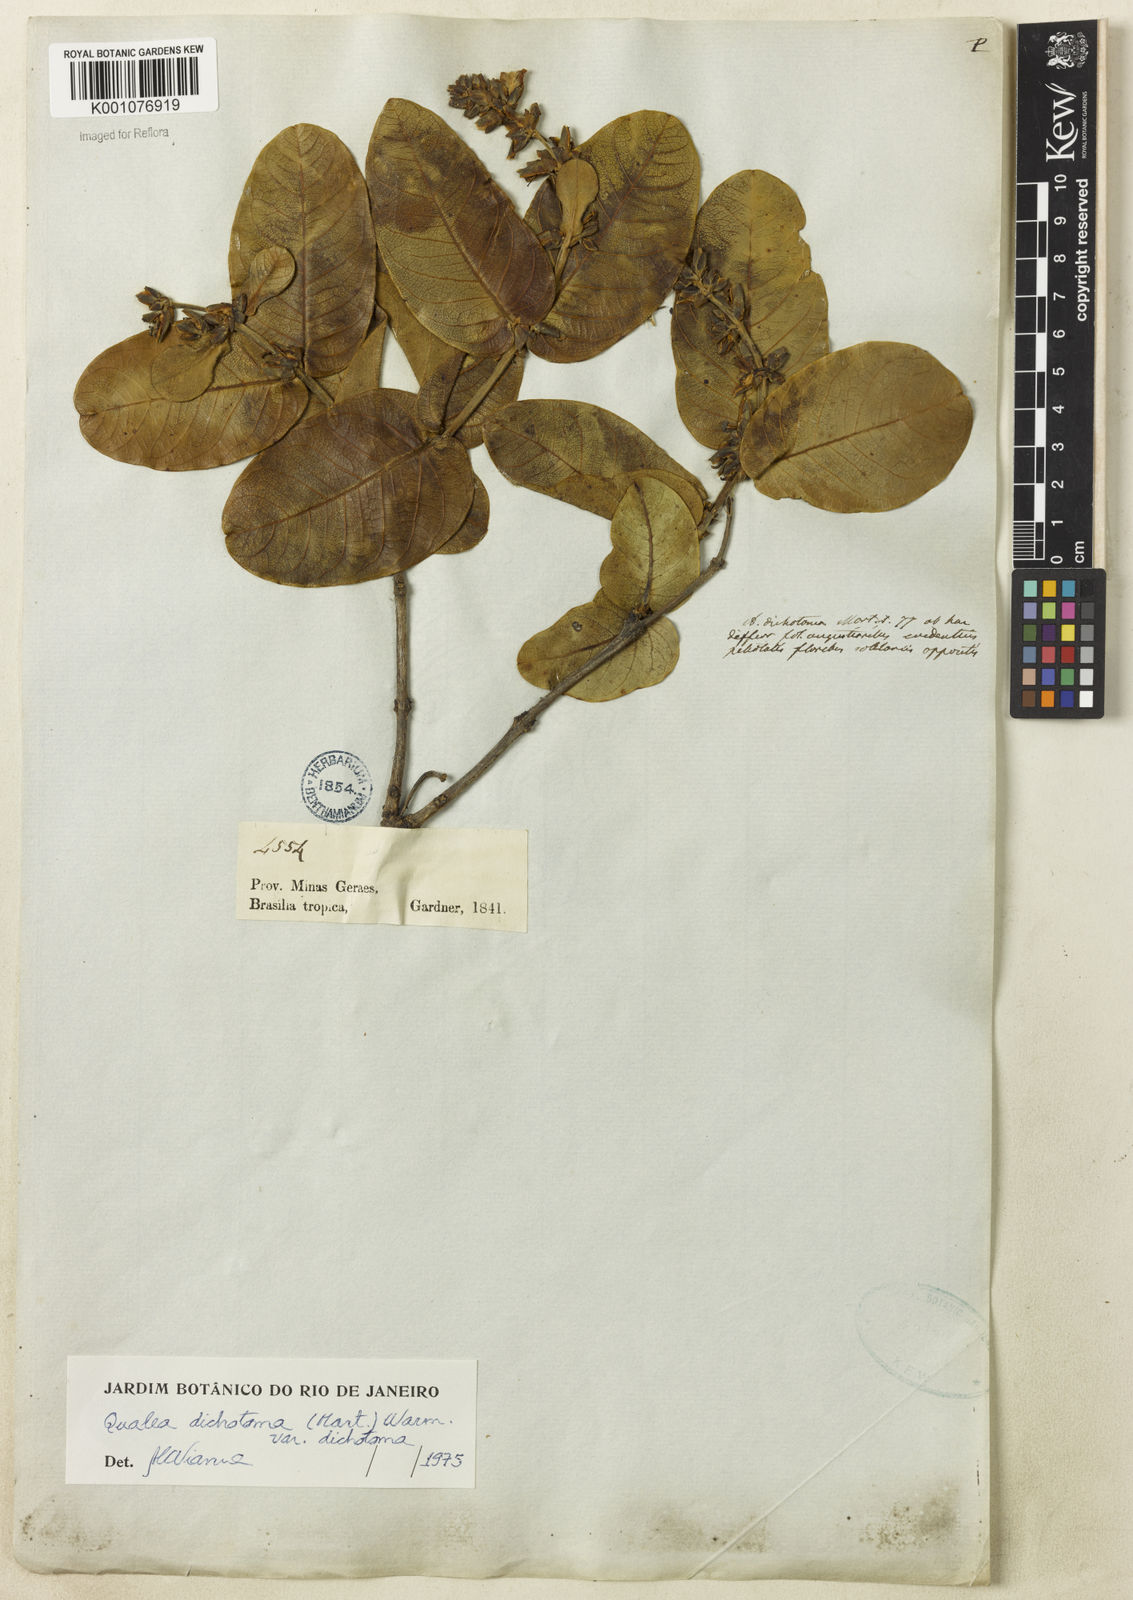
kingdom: Plantae
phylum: Tracheophyta
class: Magnoliopsida
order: Myrtales
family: Vochysiaceae
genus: Qualea
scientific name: Qualea
